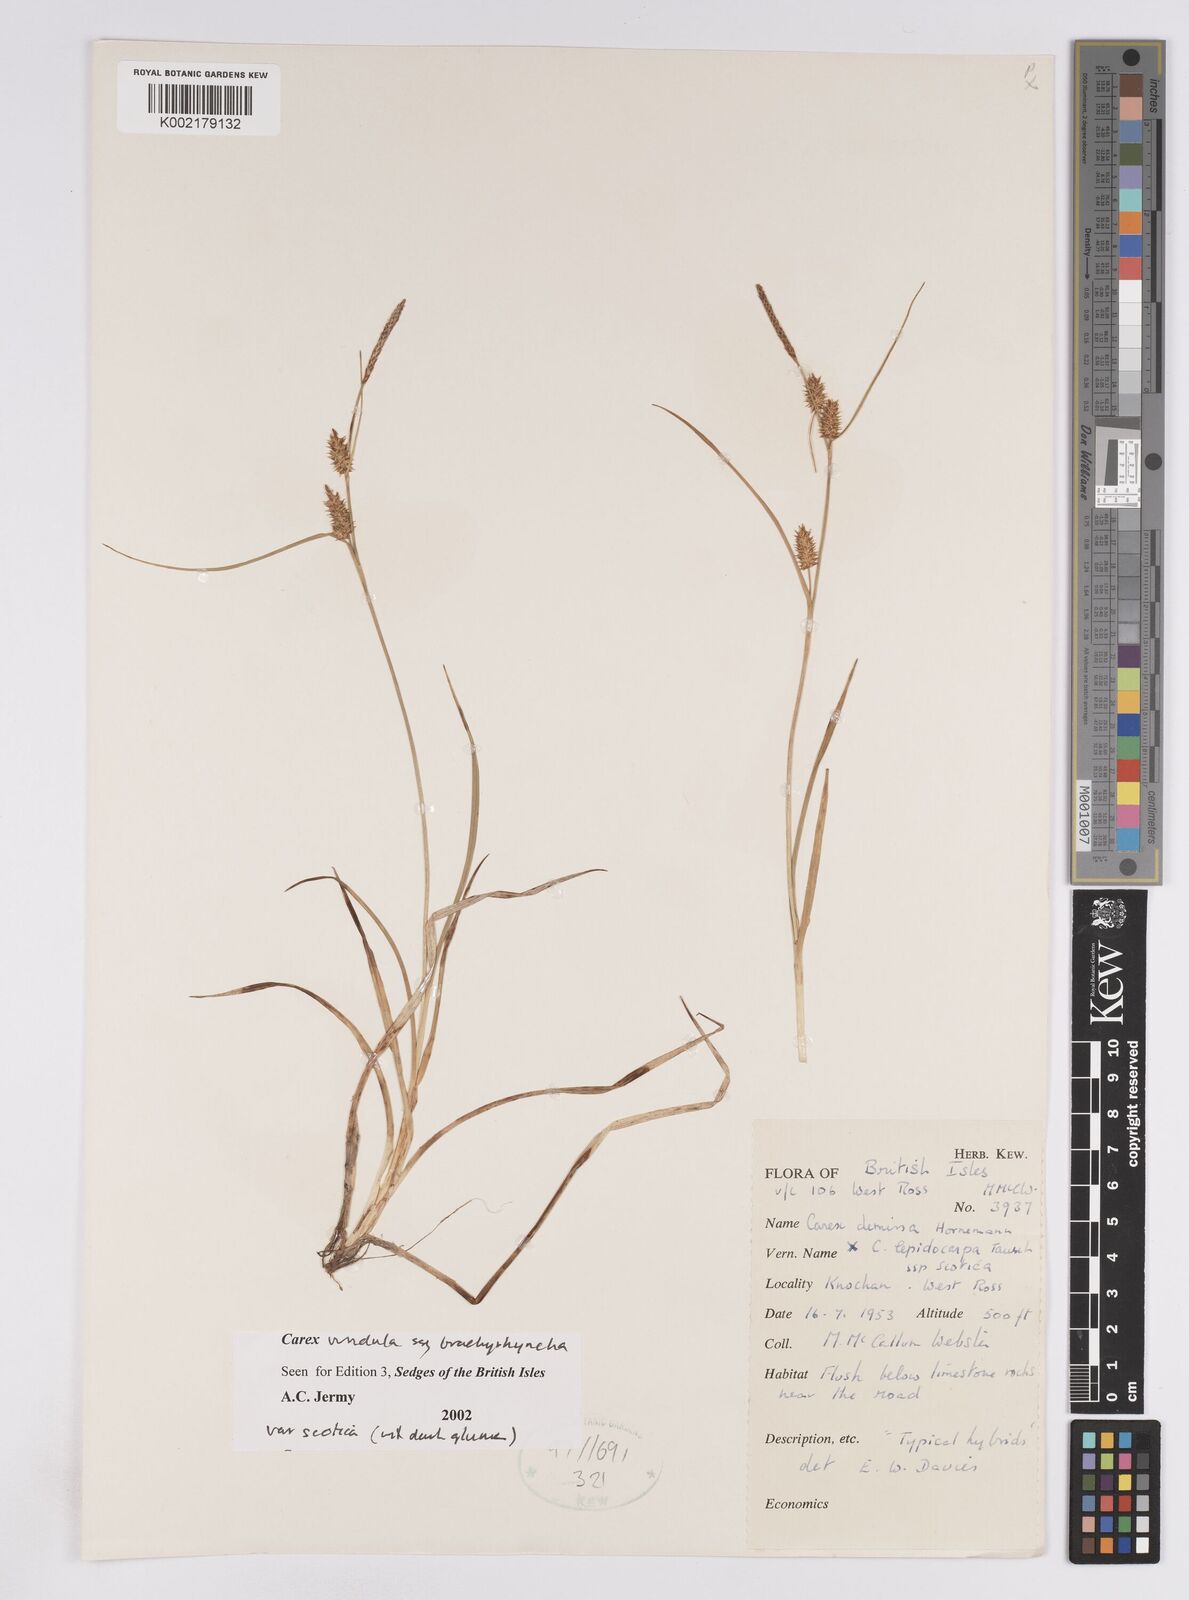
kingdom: Plantae
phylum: Tracheophyta
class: Liliopsida
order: Poales
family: Cyperaceae
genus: Carex
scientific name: Carex lepidocarpa
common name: Long-stalked yellow-sedge
